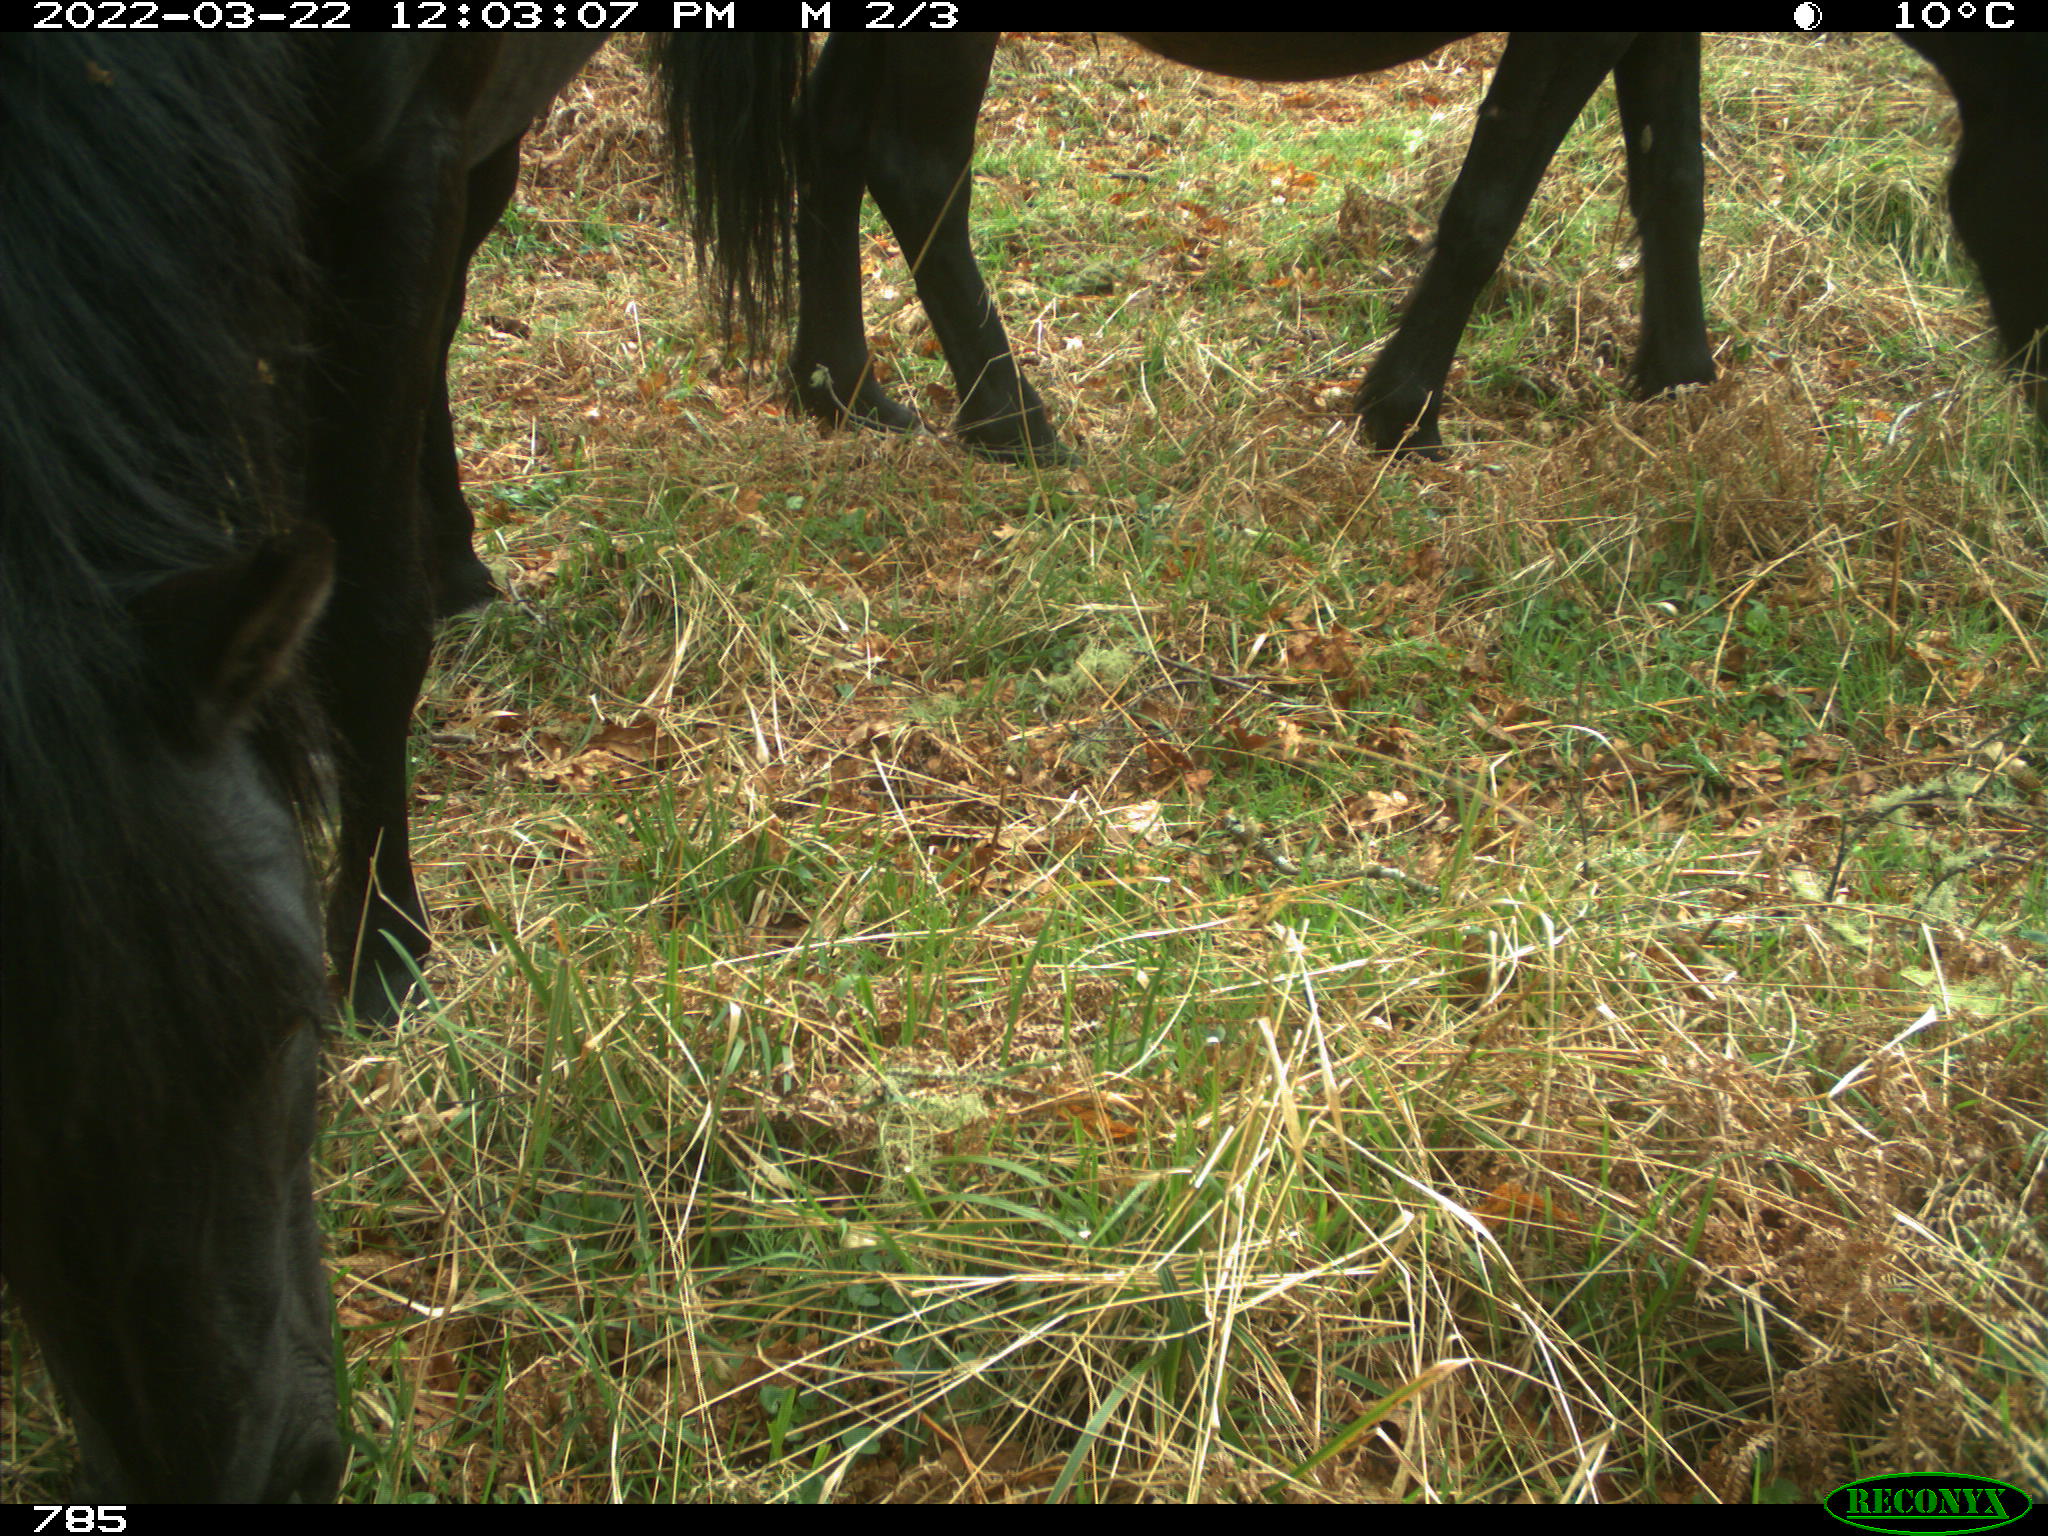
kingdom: Animalia
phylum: Chordata
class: Mammalia
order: Perissodactyla
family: Equidae
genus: Equus
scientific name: Equus caballus
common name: Horse
